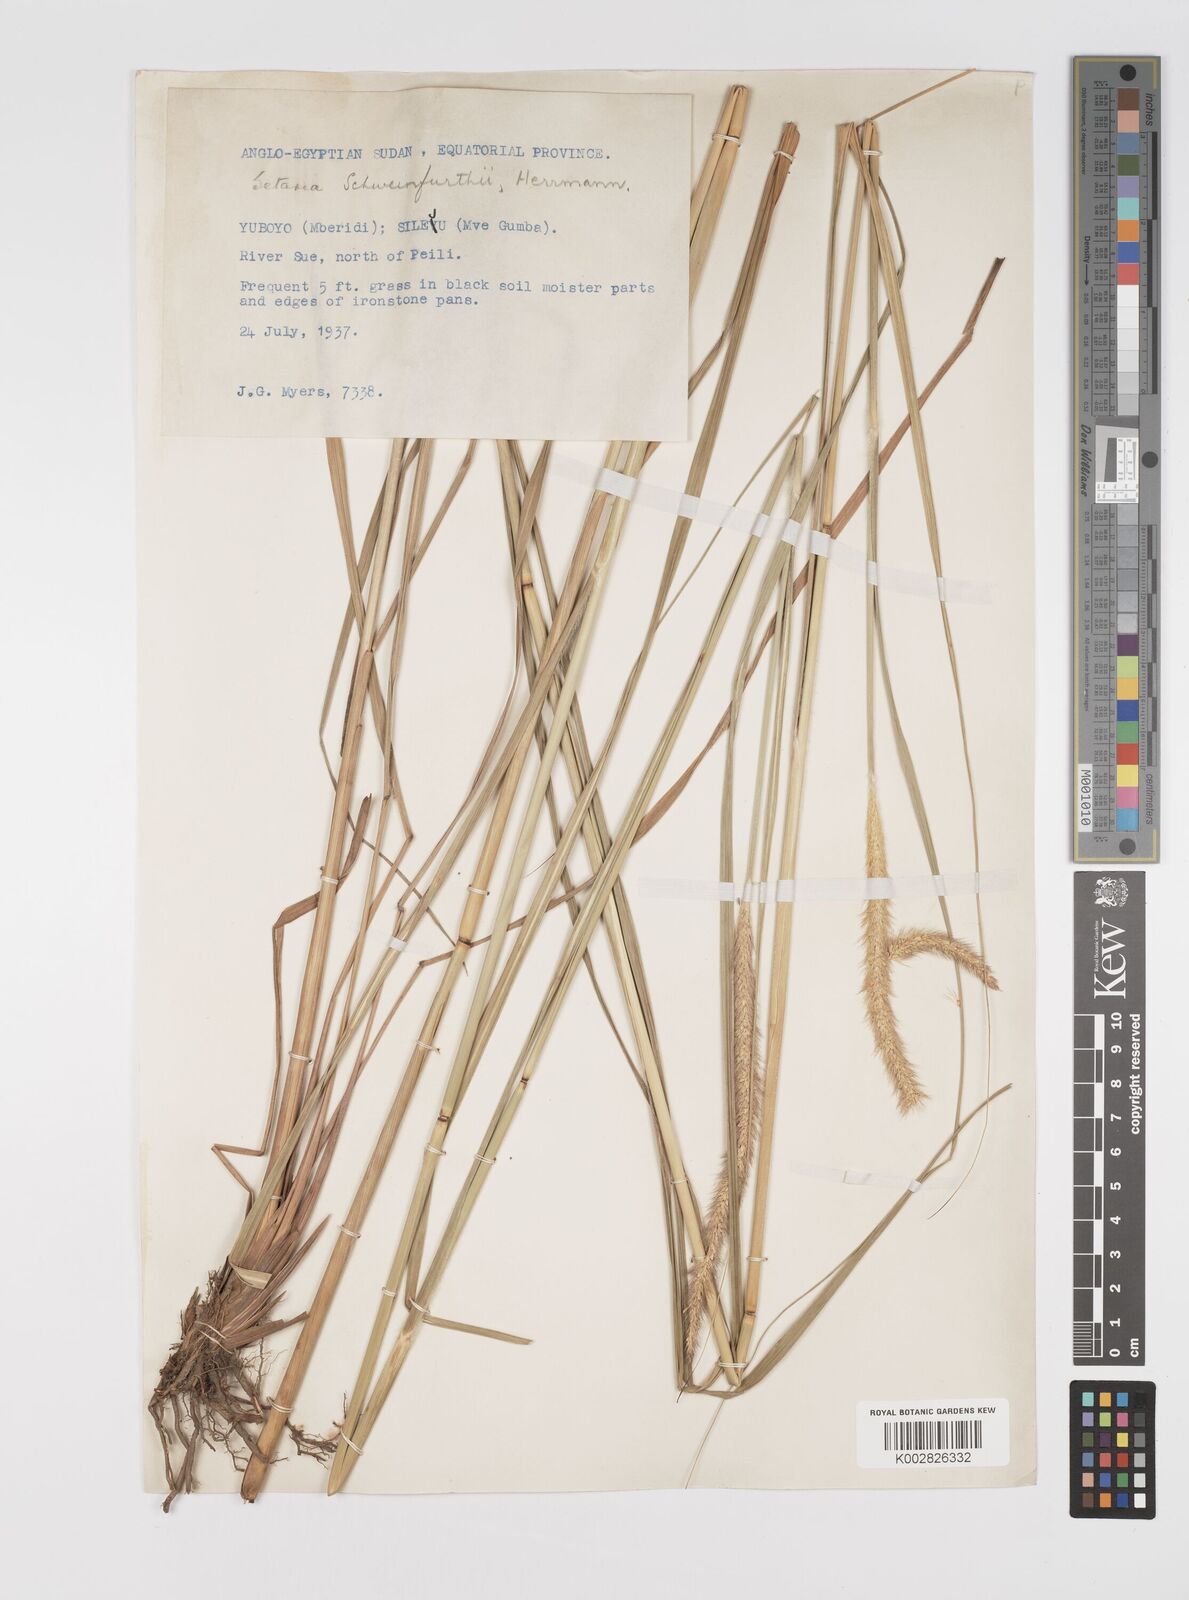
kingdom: Plantae
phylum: Tracheophyta
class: Liliopsida
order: Poales
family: Poaceae
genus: Setaria
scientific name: Setaria restioidea
